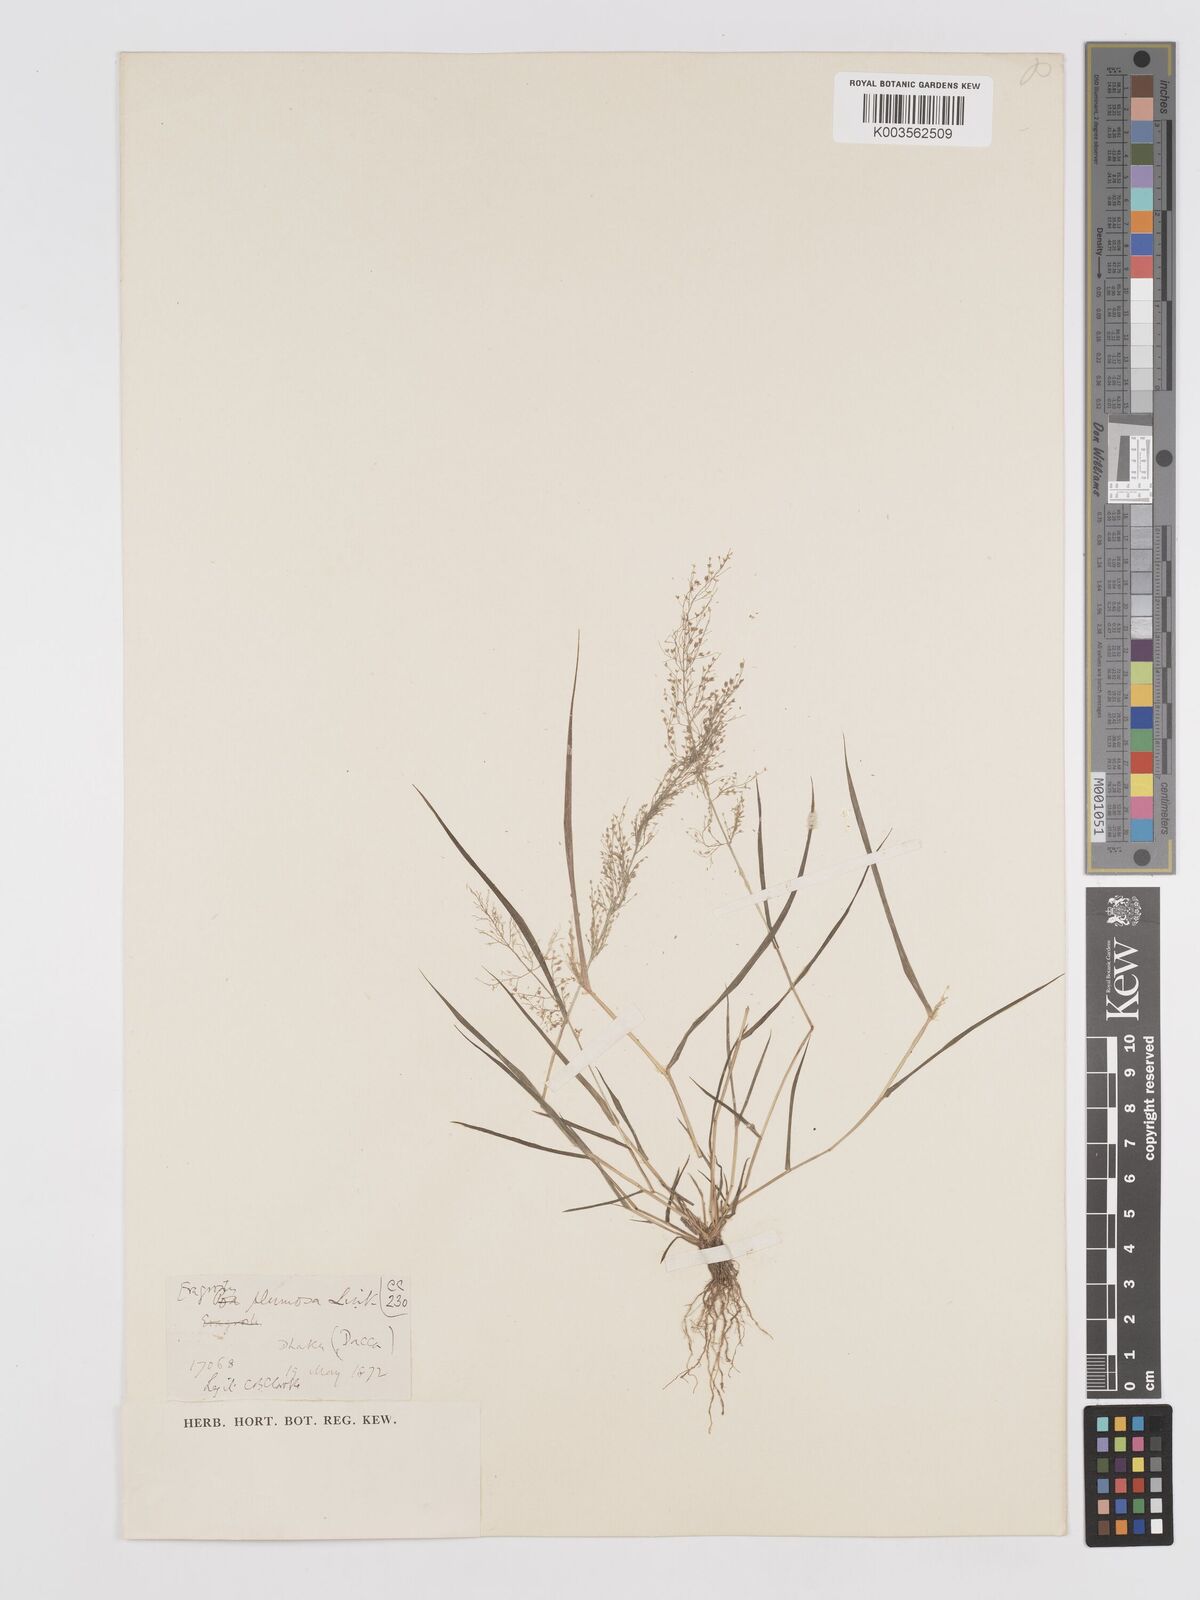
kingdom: Plantae
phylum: Tracheophyta
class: Liliopsida
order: Poales
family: Poaceae
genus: Eragrostis
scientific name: Eragrostis tenella
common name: Japanese lovegrass
